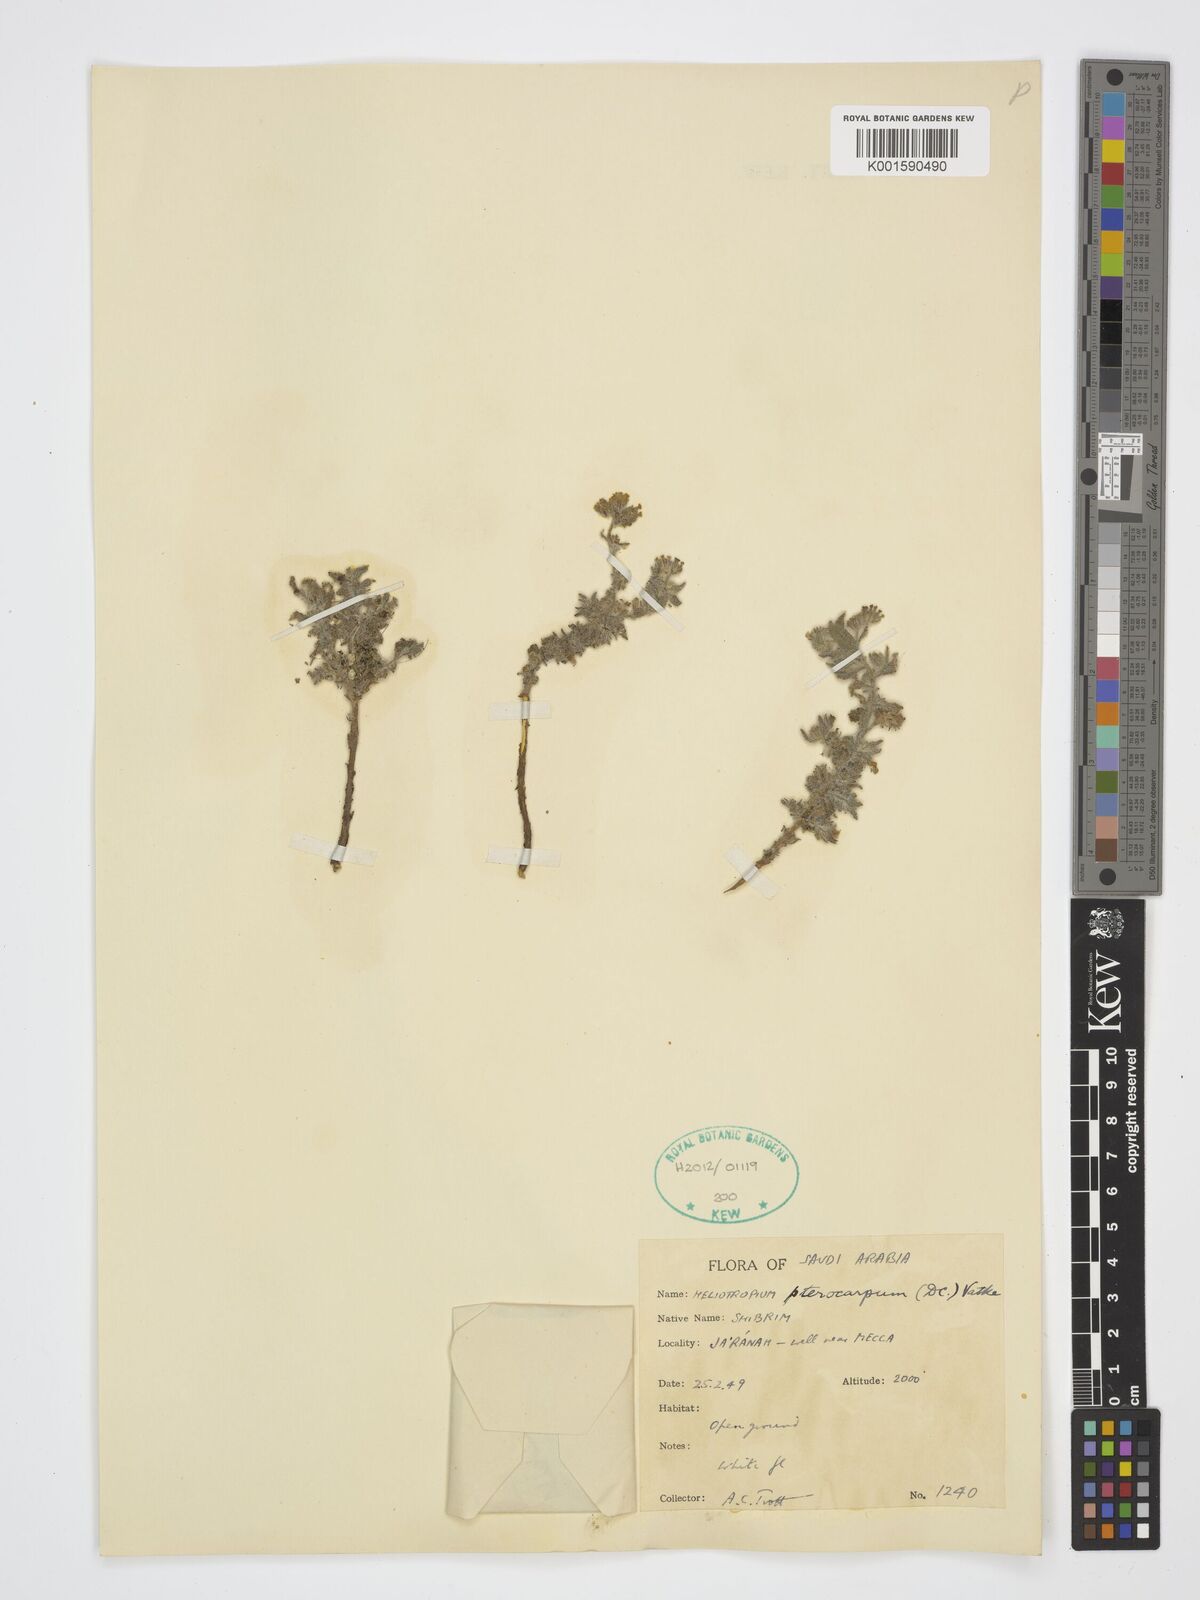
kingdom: Plantae
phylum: Tracheophyta
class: Magnoliopsida
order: Boraginales
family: Heliotropiaceae
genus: Heliotropium
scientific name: Heliotropium pterocarpum
